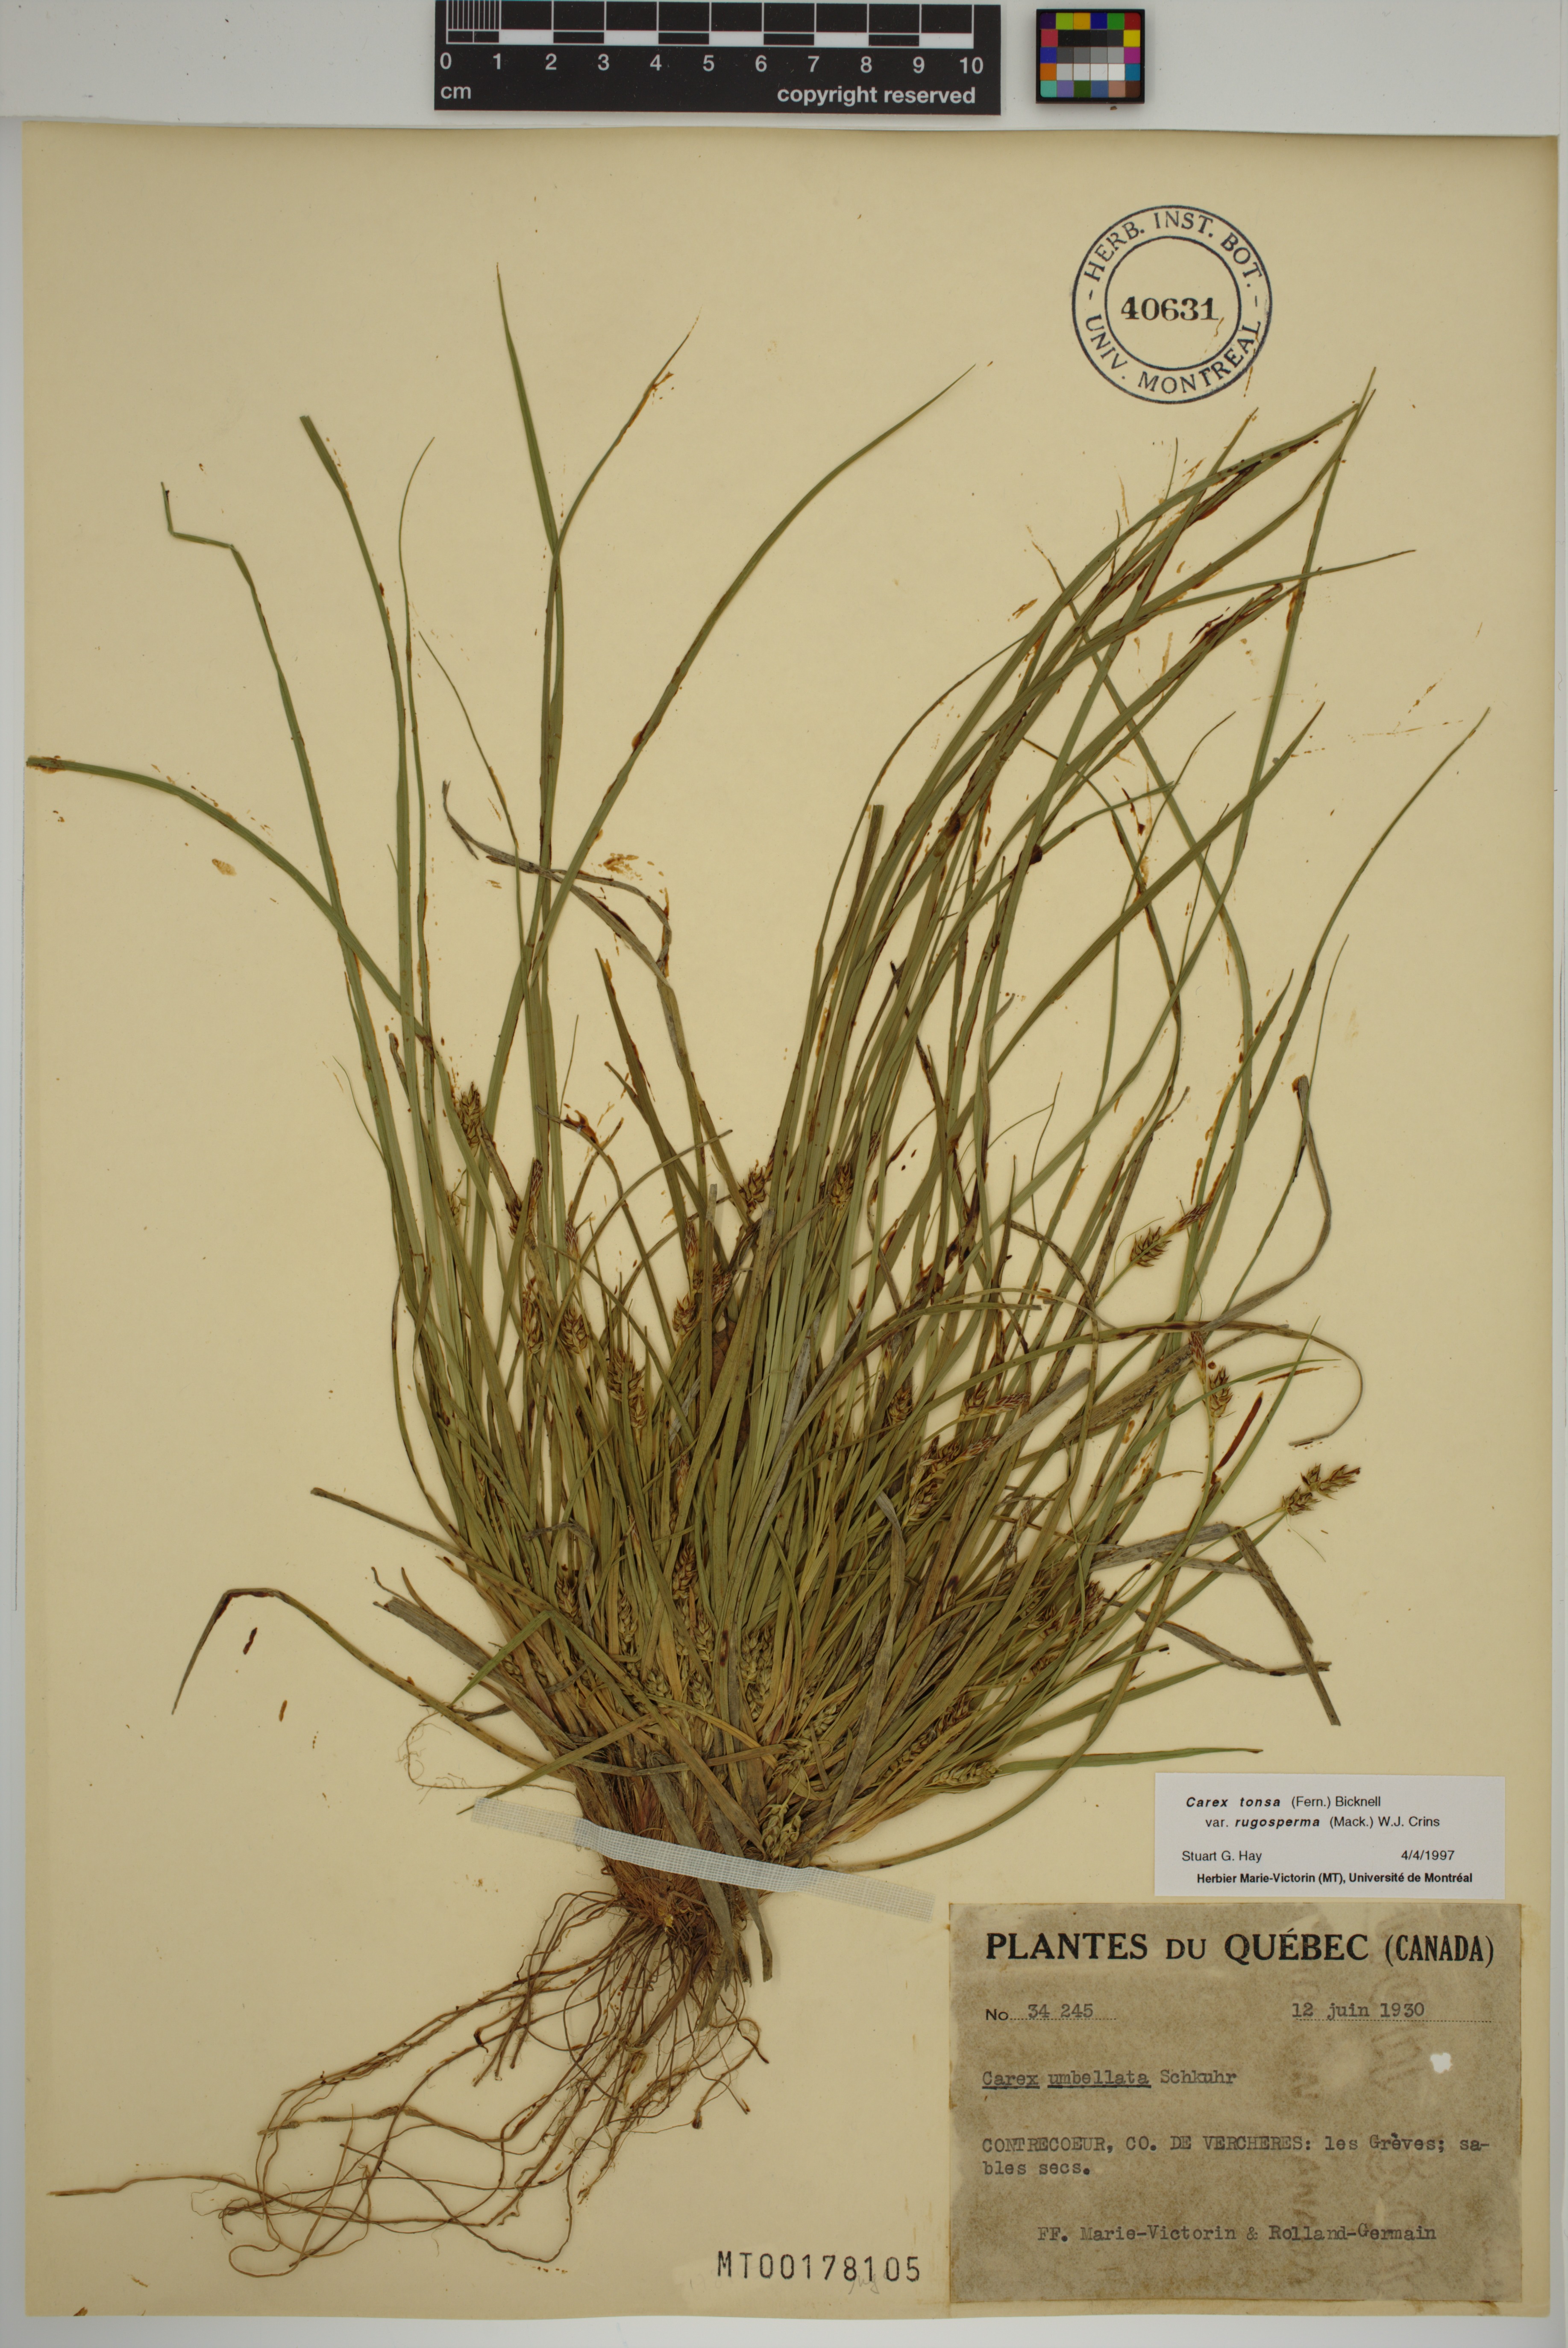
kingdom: Plantae
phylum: Tracheophyta
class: Liliopsida
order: Poales
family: Cyperaceae
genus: Carex
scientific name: Carex tonsa
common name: Bald sedge
